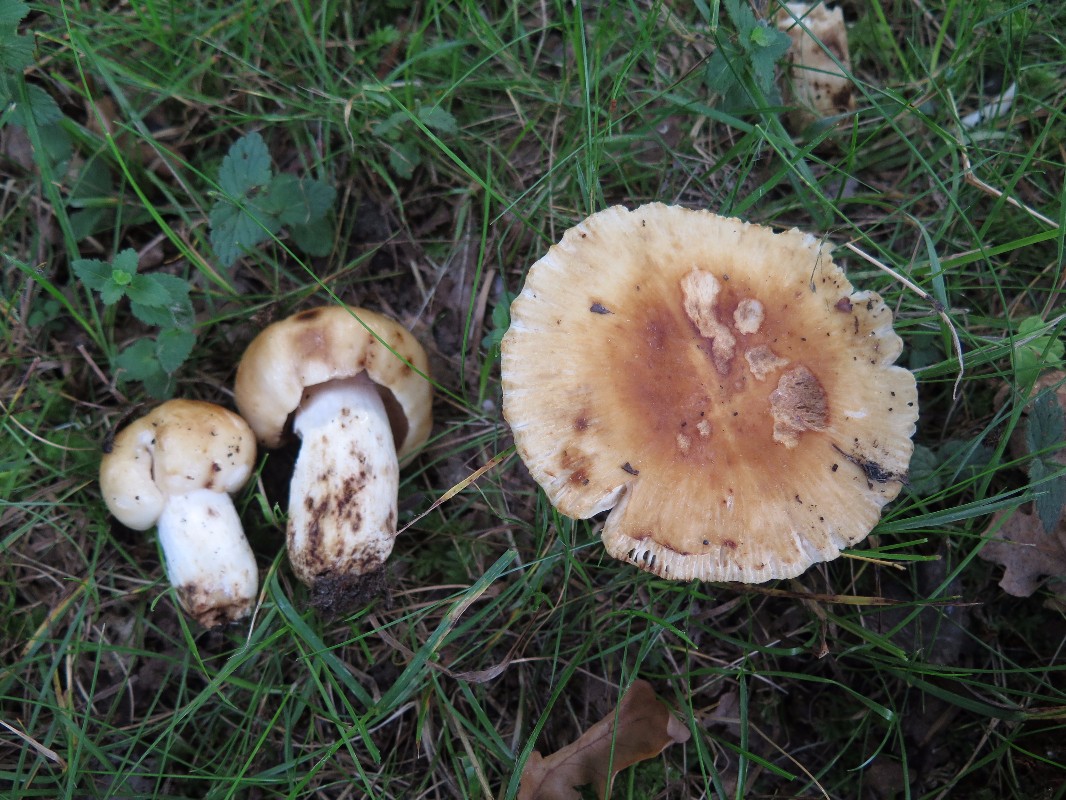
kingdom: Fungi
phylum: Basidiomycota
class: Agaricomycetes
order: Russulales
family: Russulaceae
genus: Russula
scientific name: Russula foetens
